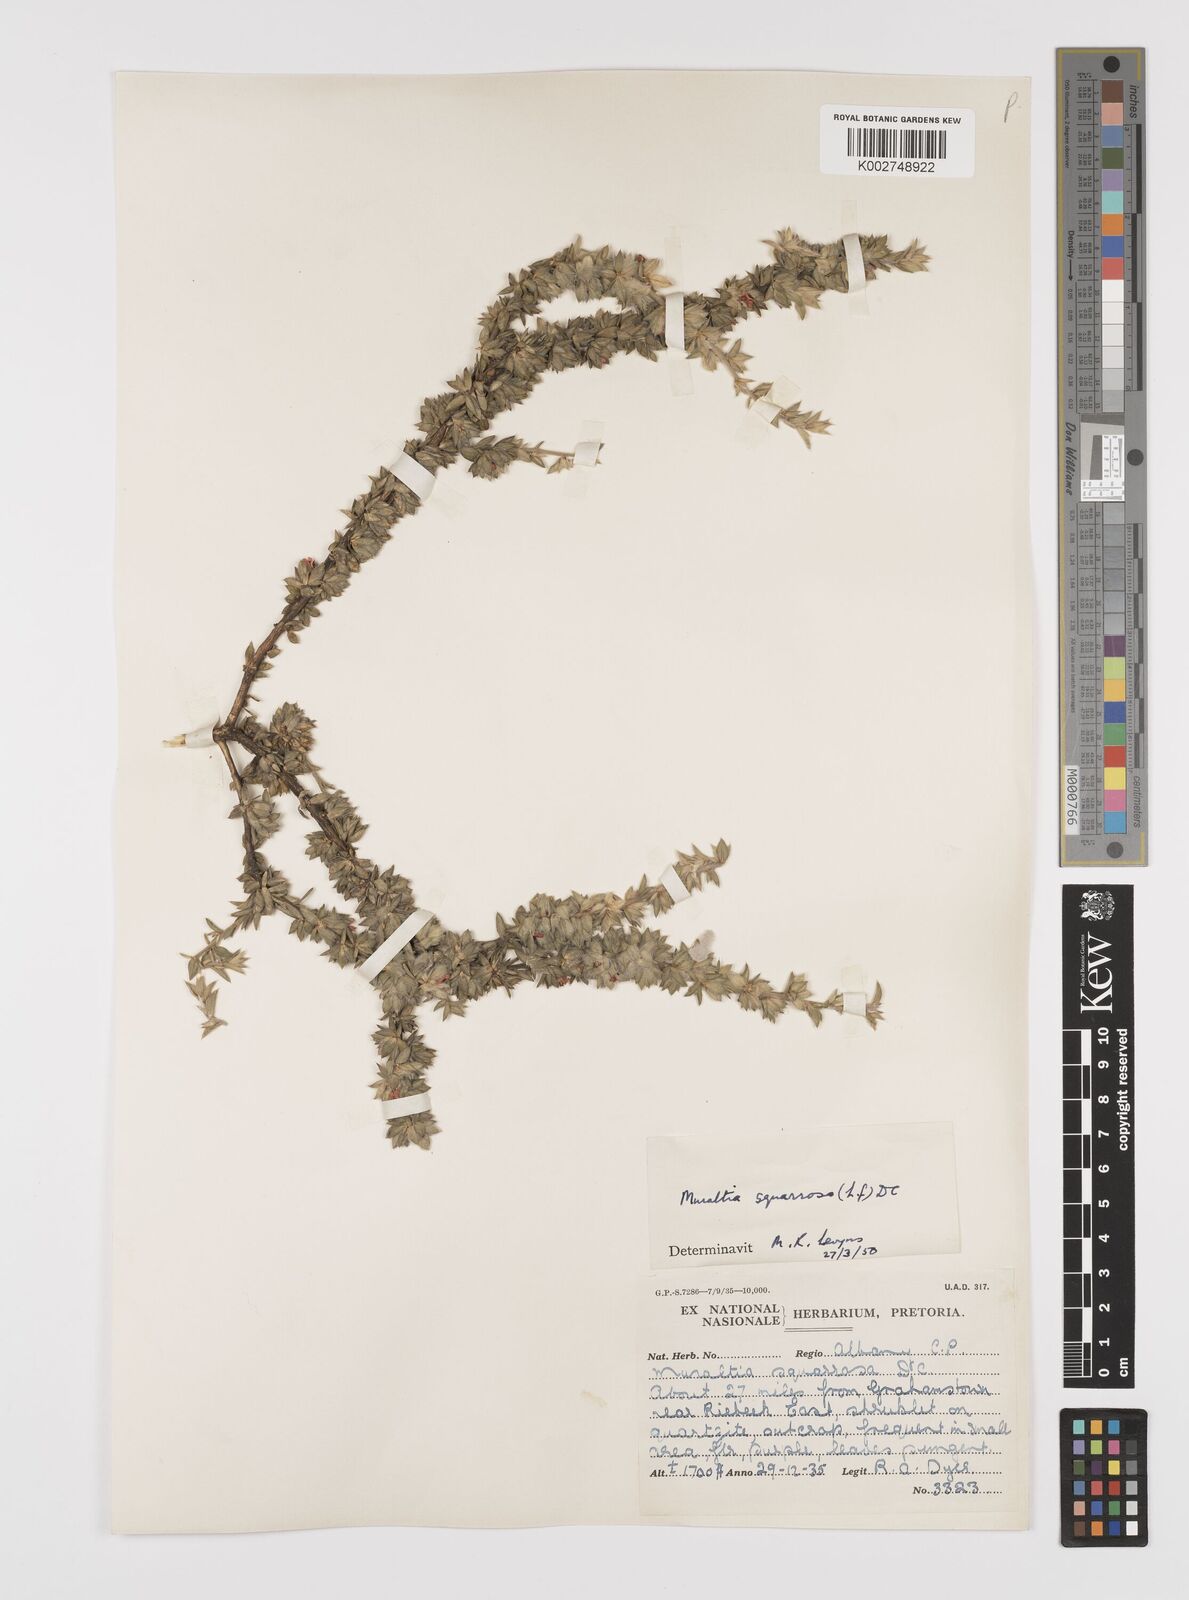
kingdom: Plantae
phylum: Tracheophyta
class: Magnoliopsida
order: Fabales
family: Polygalaceae
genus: Muraltia
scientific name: Muraltia squarrosa
